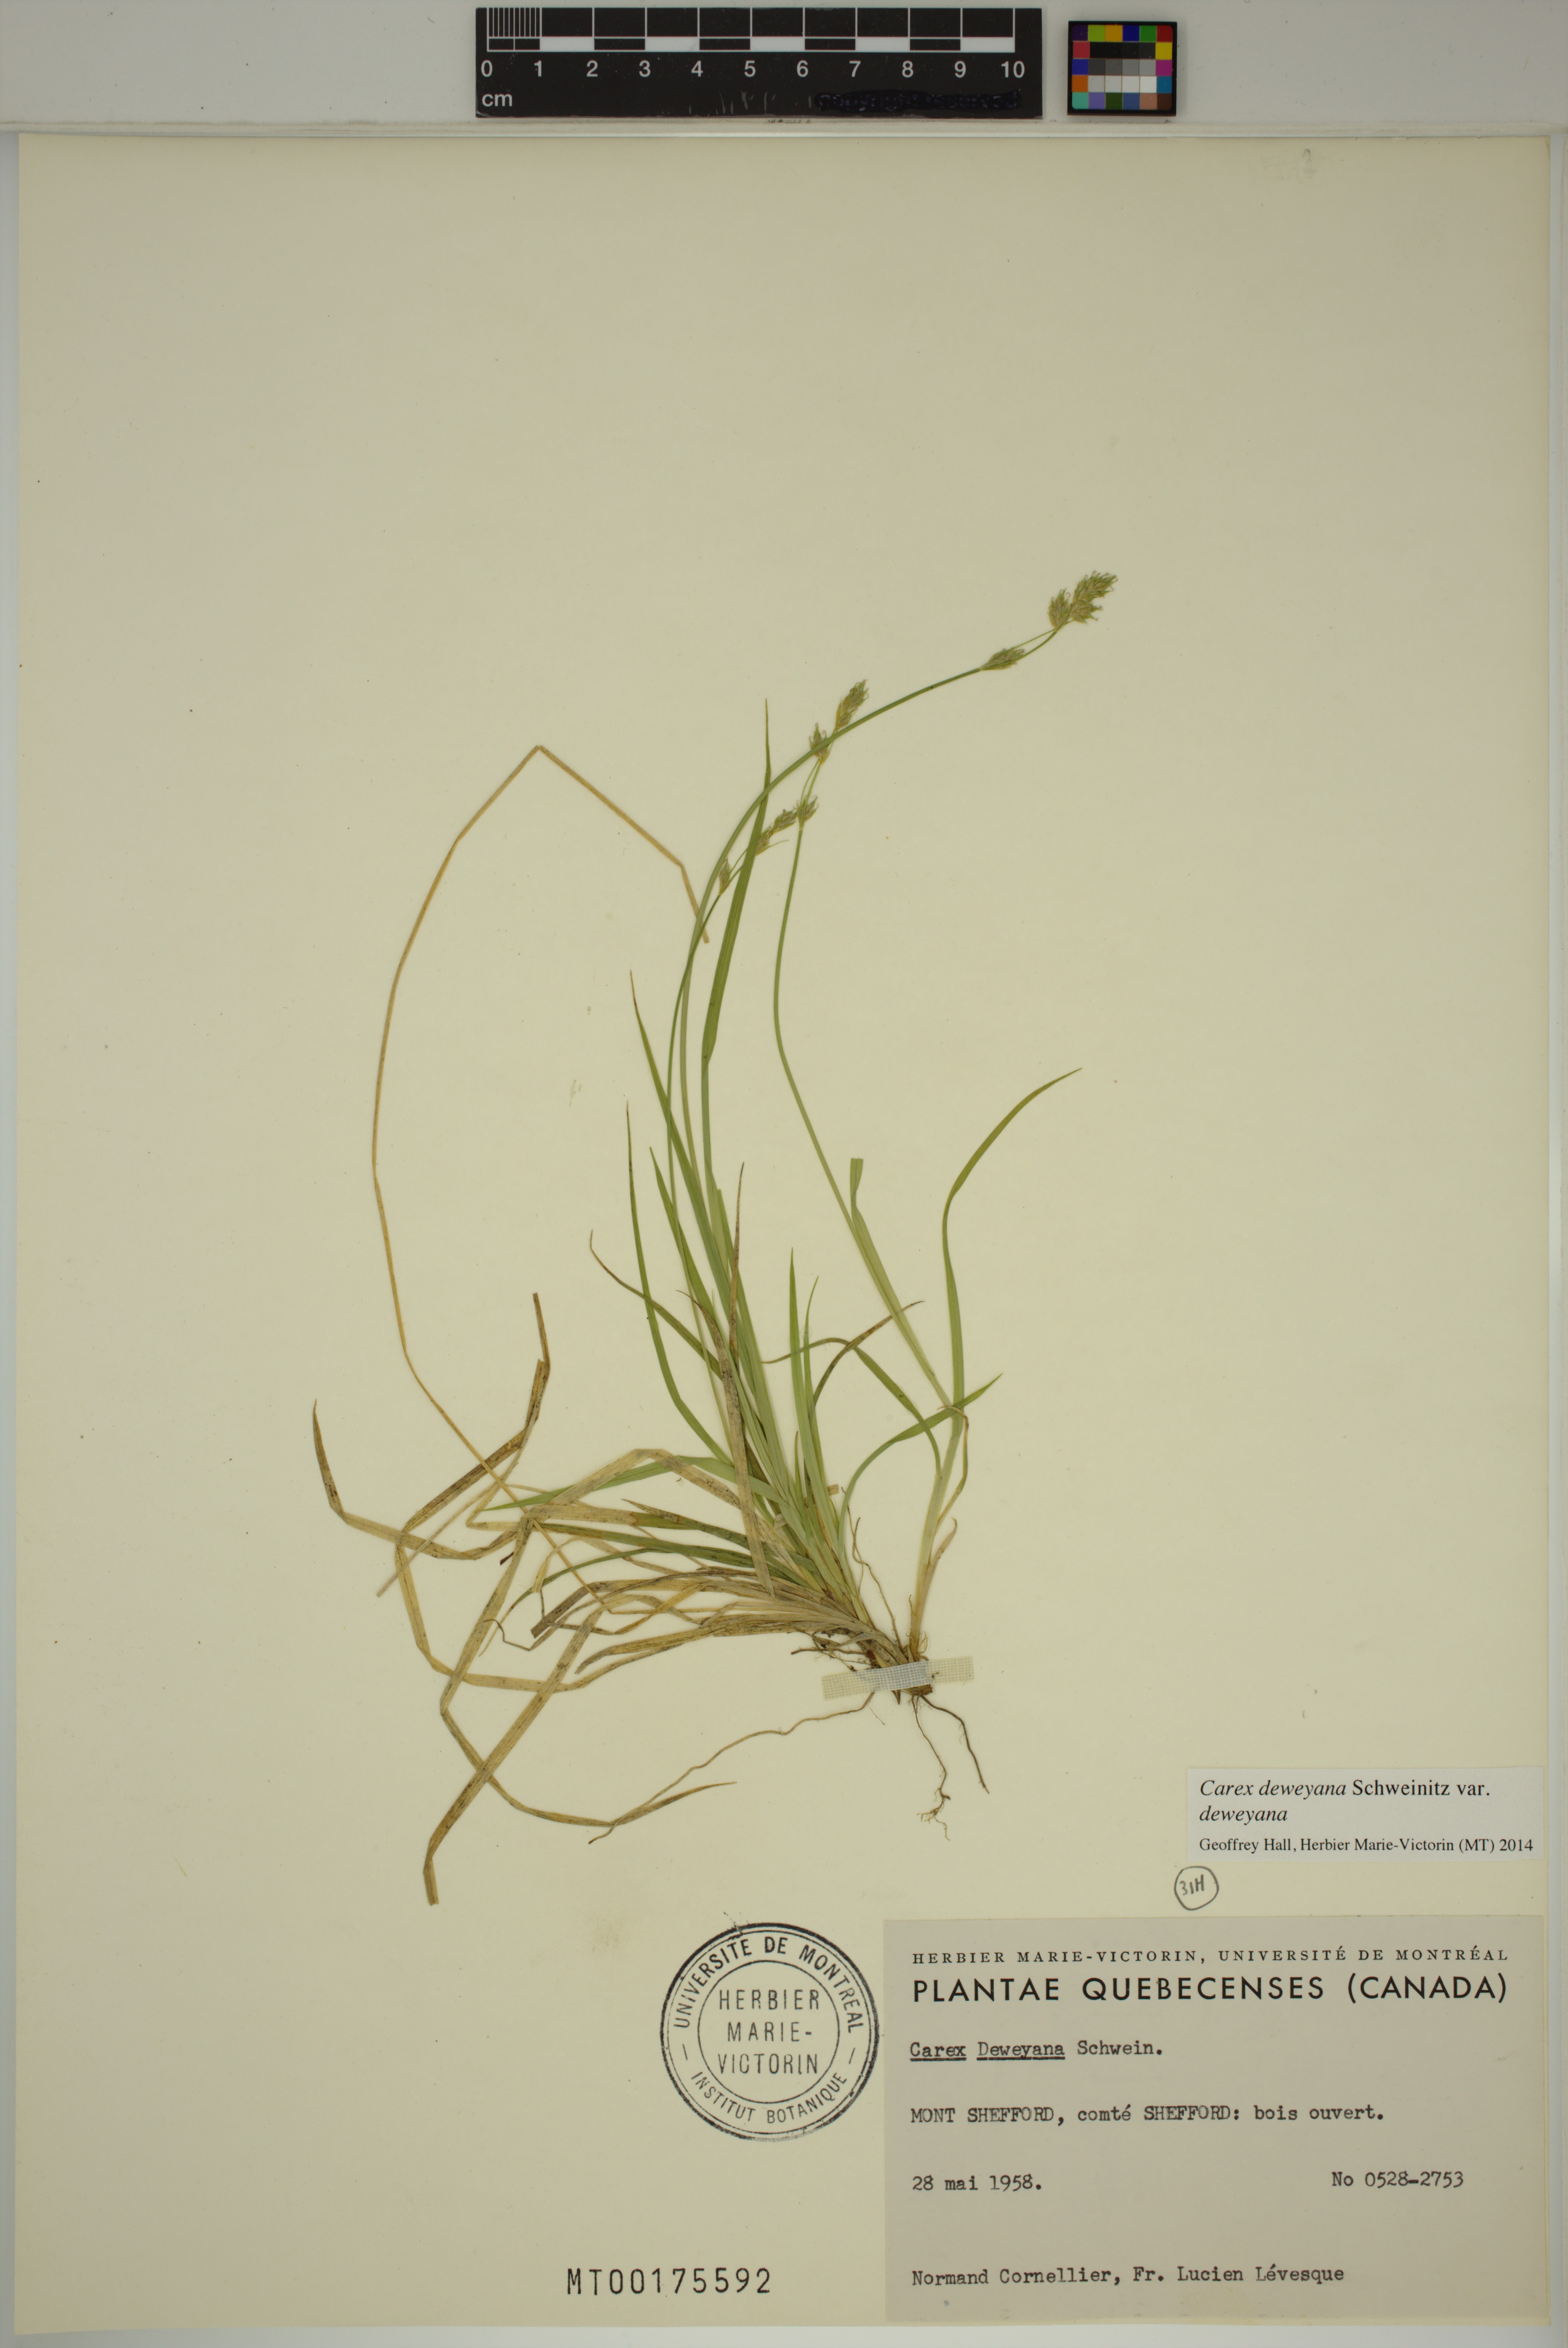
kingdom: Plantae
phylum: Tracheophyta
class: Liliopsida
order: Poales
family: Cyperaceae
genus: Carex
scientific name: Carex deweyana
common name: Dewey's sedge
